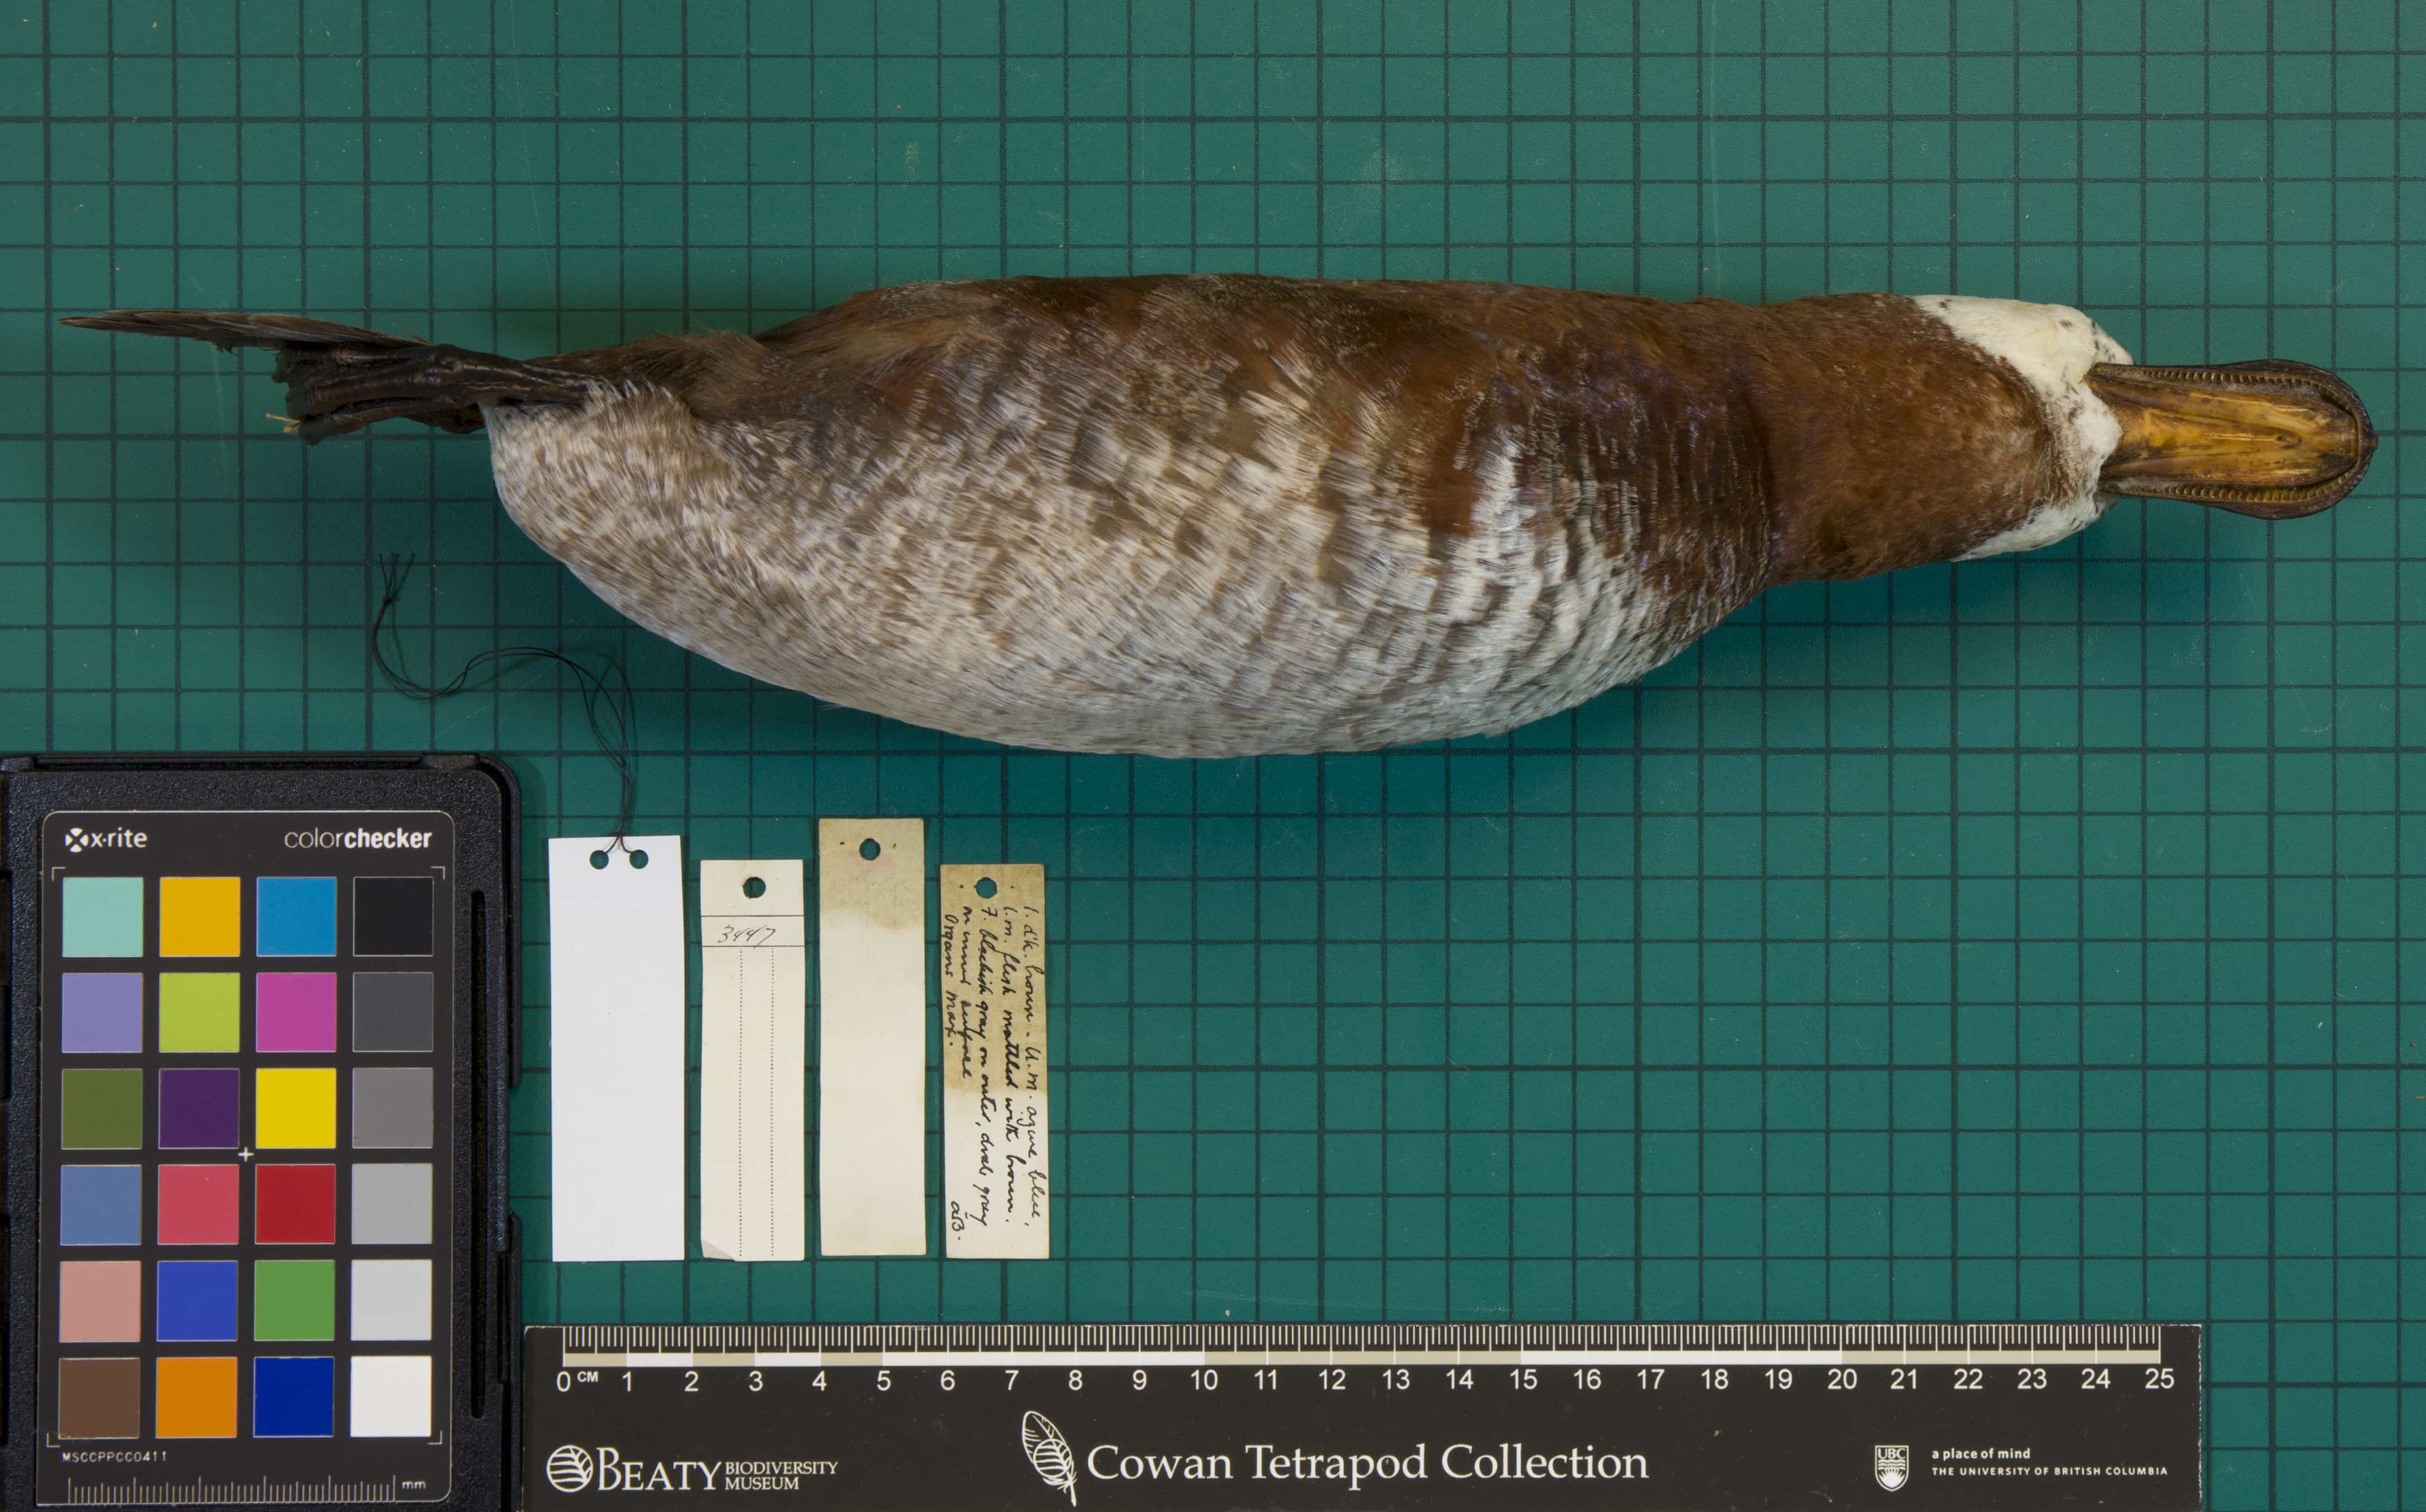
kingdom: Animalia
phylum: Chordata
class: Aves
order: Anseriformes
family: Anatidae
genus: Oxyura
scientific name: Oxyura jamaicensis
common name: Ruddy Duck
